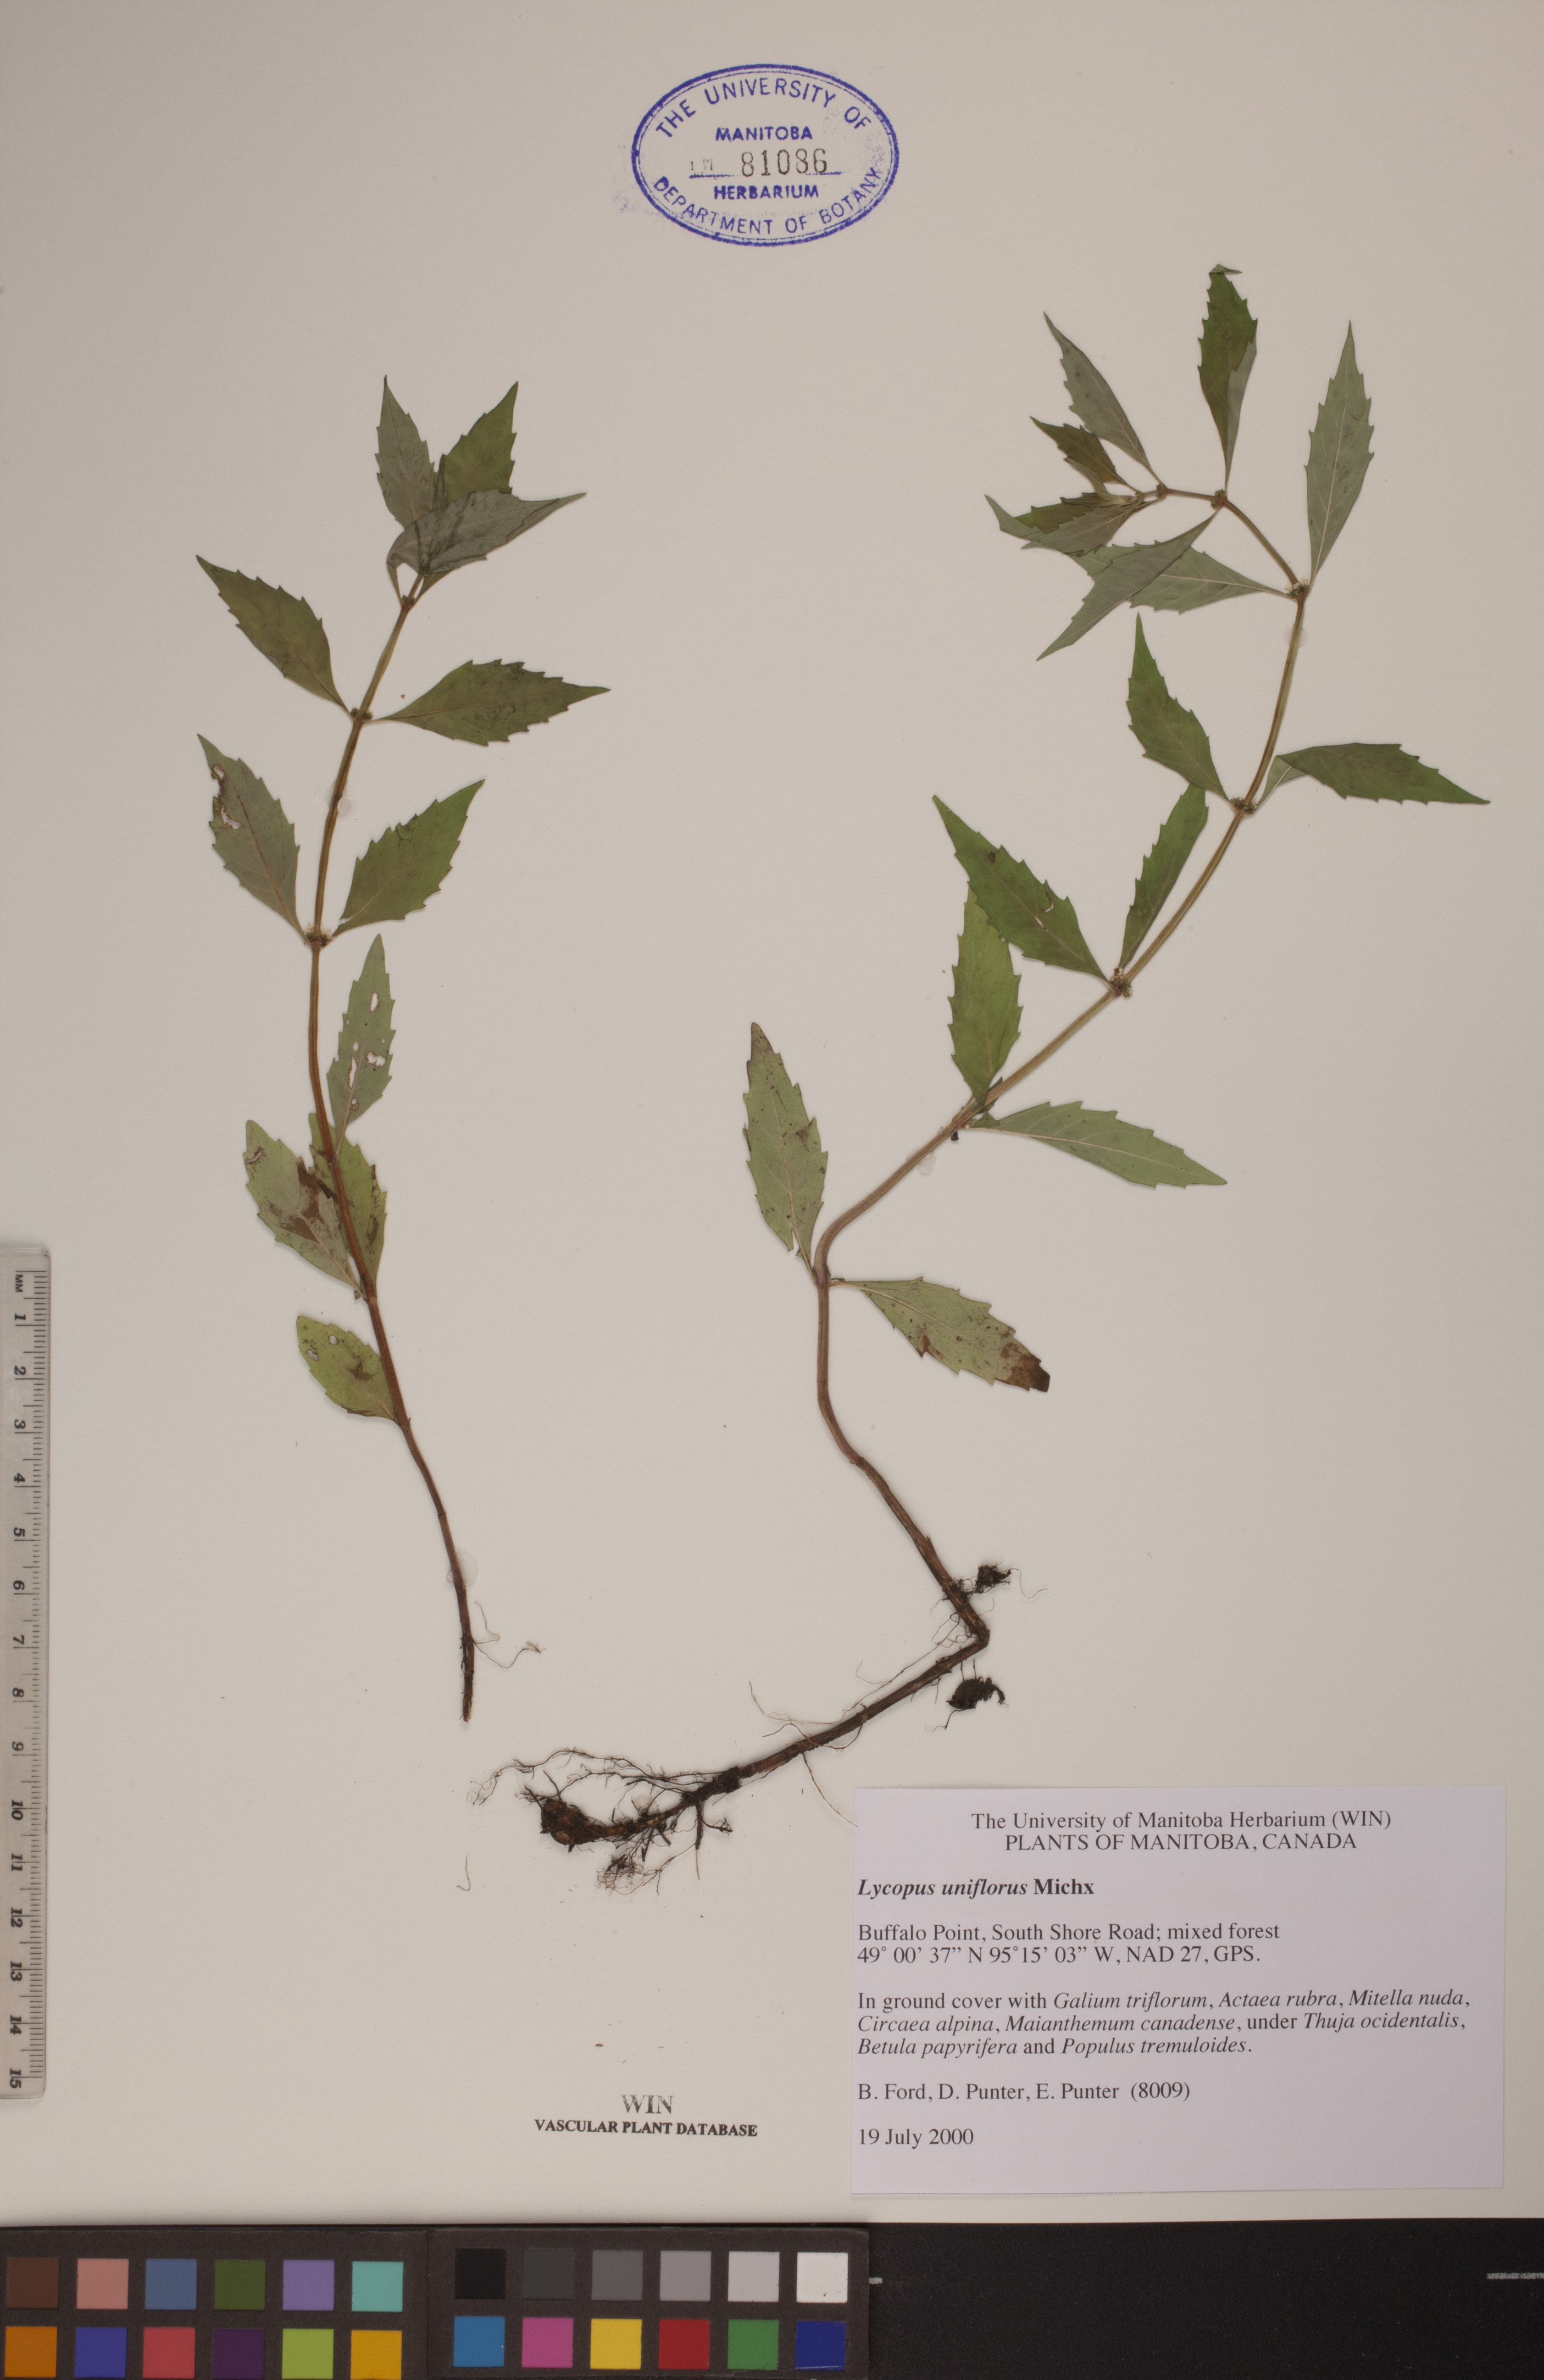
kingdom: Plantae
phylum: Tracheophyta
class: Magnoliopsida
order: Lamiales
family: Lamiaceae
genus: Lycopus
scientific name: Lycopus uniflorus
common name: Northern bugleweed
